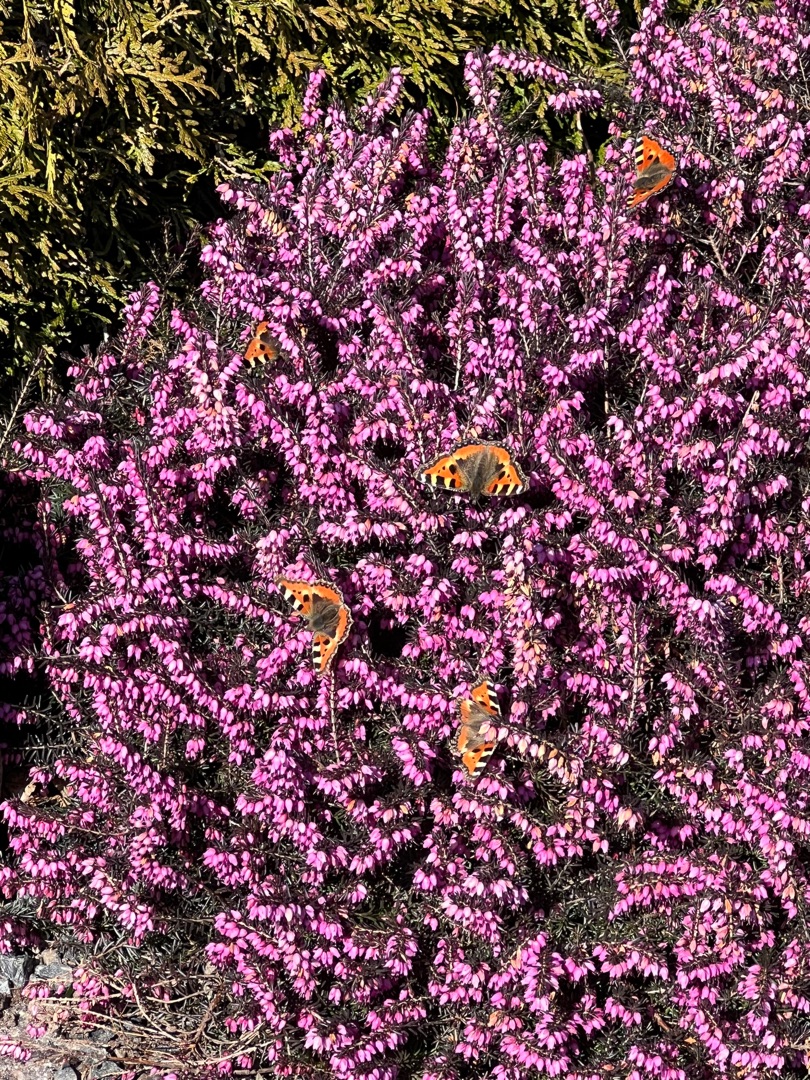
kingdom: Animalia
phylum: Arthropoda
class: Insecta
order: Lepidoptera
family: Nymphalidae
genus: Aglais
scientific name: Aglais urticae
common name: Nældens takvinge
